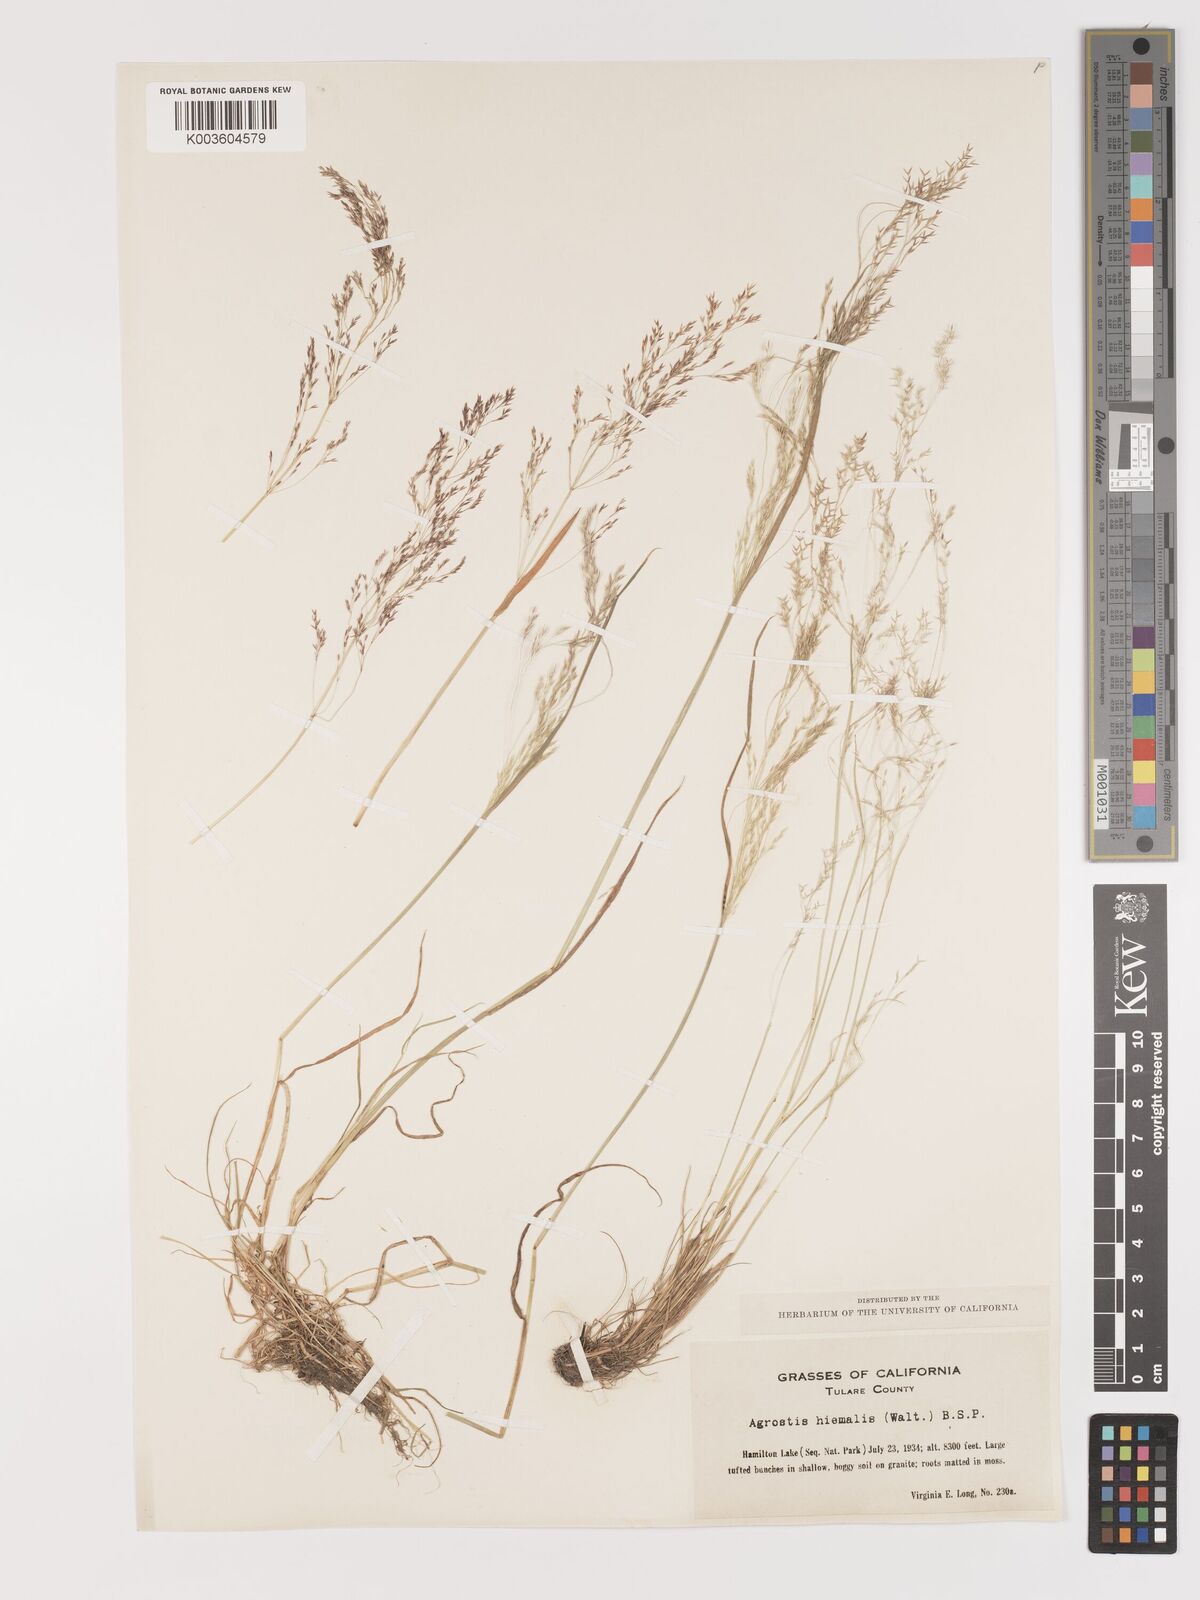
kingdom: Plantae
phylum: Tracheophyta
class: Liliopsida
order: Poales
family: Poaceae
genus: Agrostis
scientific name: Agrostis hyemalis
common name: Small bent
